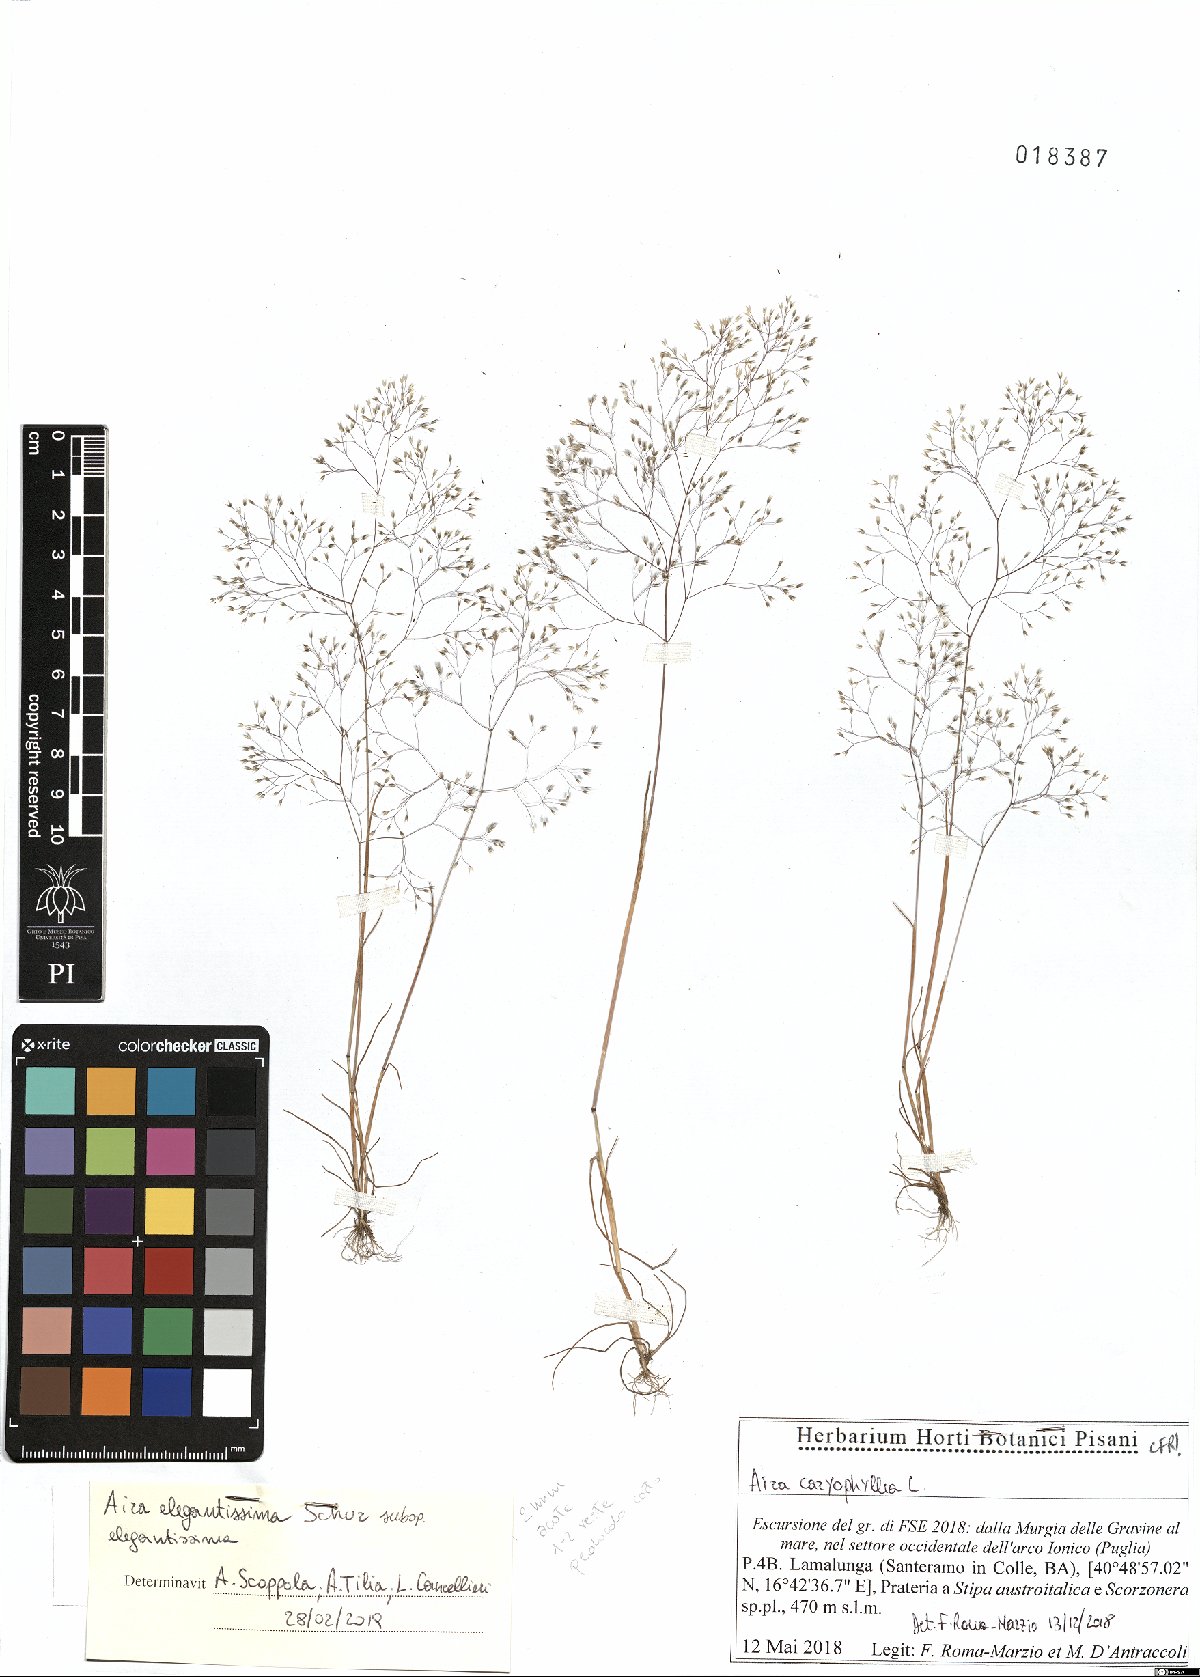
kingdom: Plantae
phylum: Tracheophyta
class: Liliopsida
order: Poales
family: Poaceae
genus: Aira
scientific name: Aira elegans
